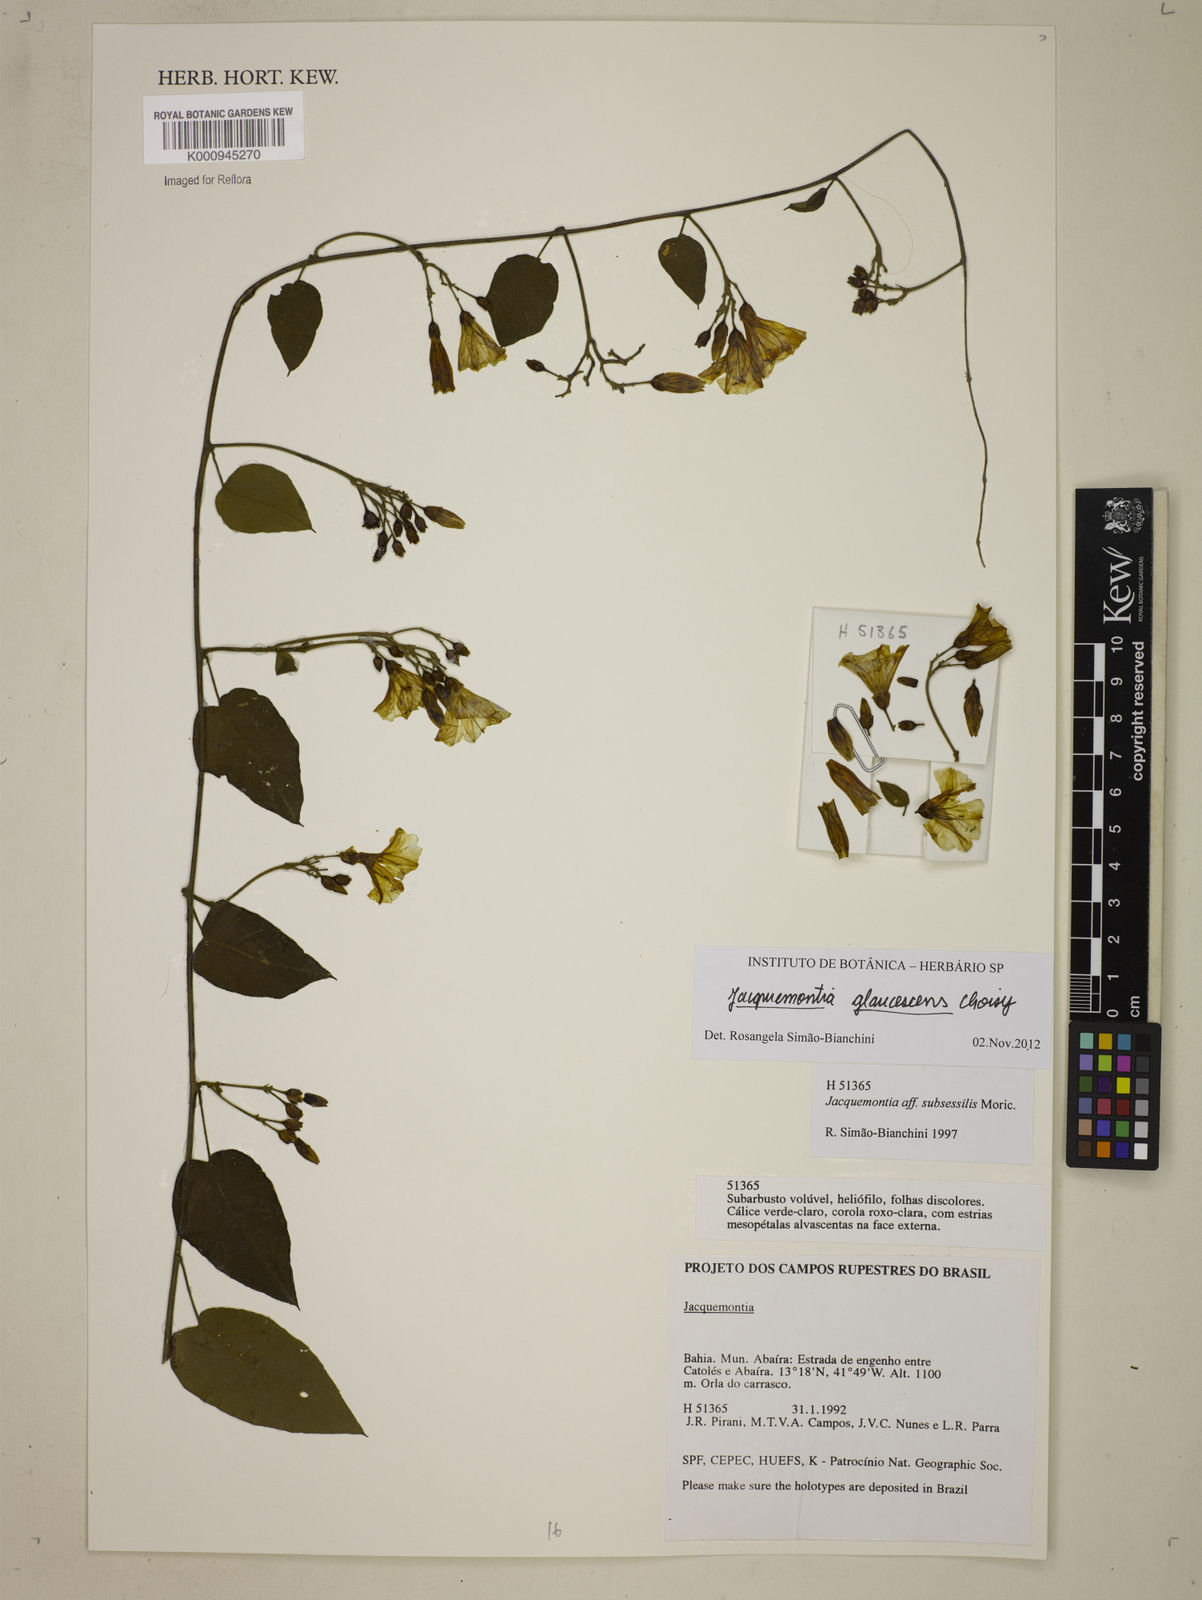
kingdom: Plantae
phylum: Tracheophyta
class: Magnoliopsida
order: Solanales
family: Convolvulaceae
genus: Jacquemontia
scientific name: Jacquemontia glaucescens
